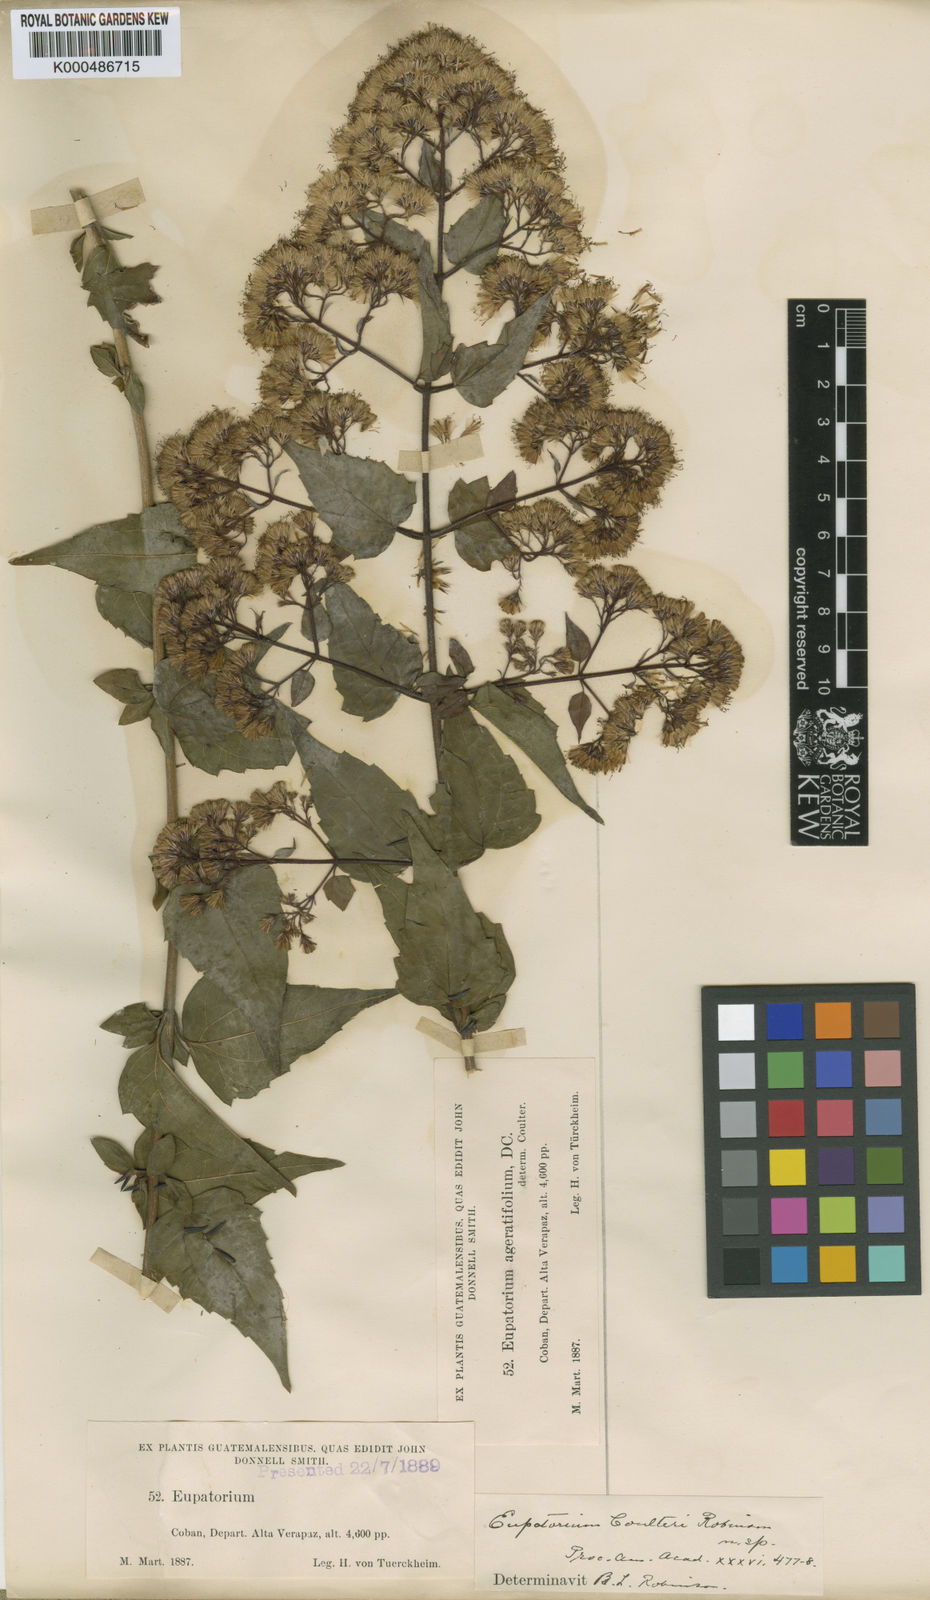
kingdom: Plantae
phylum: Tracheophyta
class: Magnoliopsida
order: Asterales
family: Asteraceae
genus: Koanophyllon
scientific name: Koanophyllon coulteri
